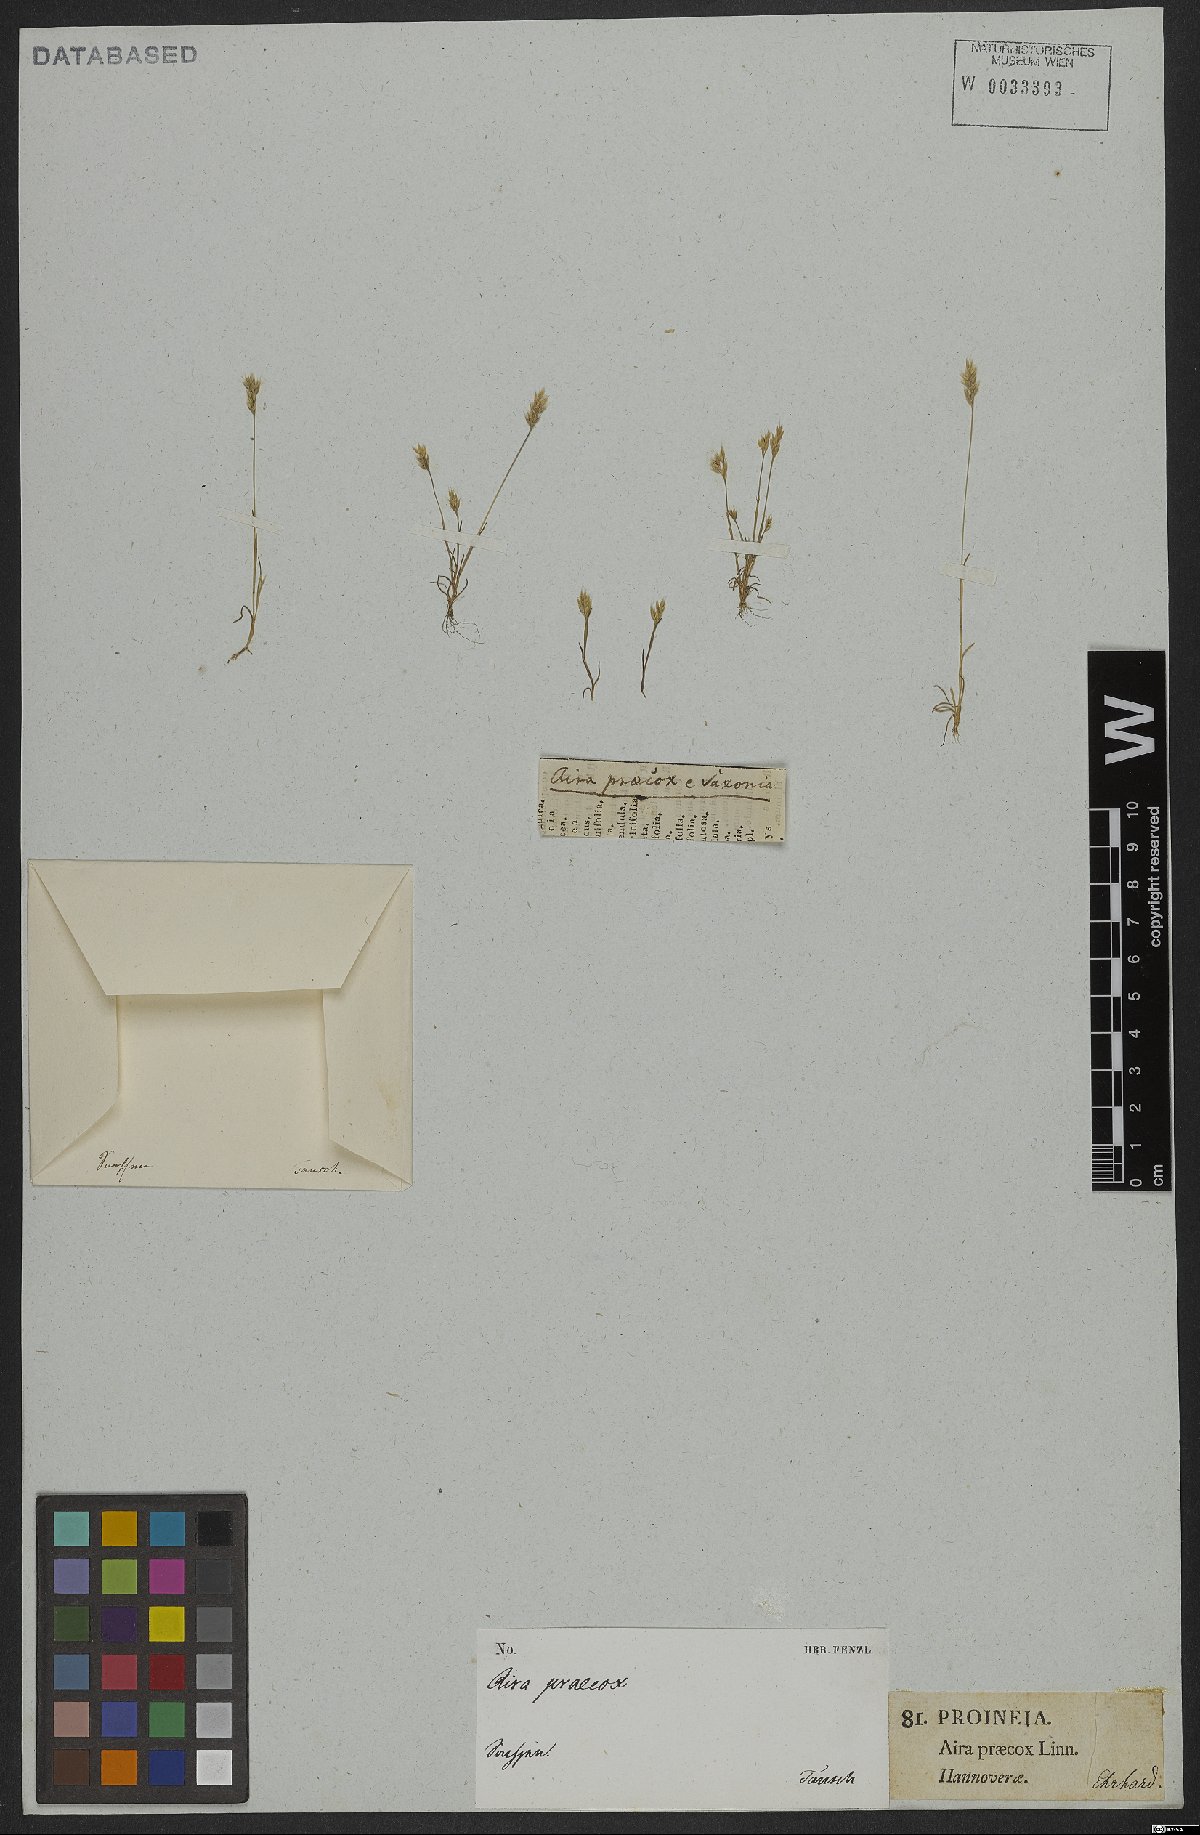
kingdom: Plantae
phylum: Tracheophyta
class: Liliopsida
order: Poales
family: Poaceae
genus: Aira
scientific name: Aira praecox
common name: Early hair-grass
